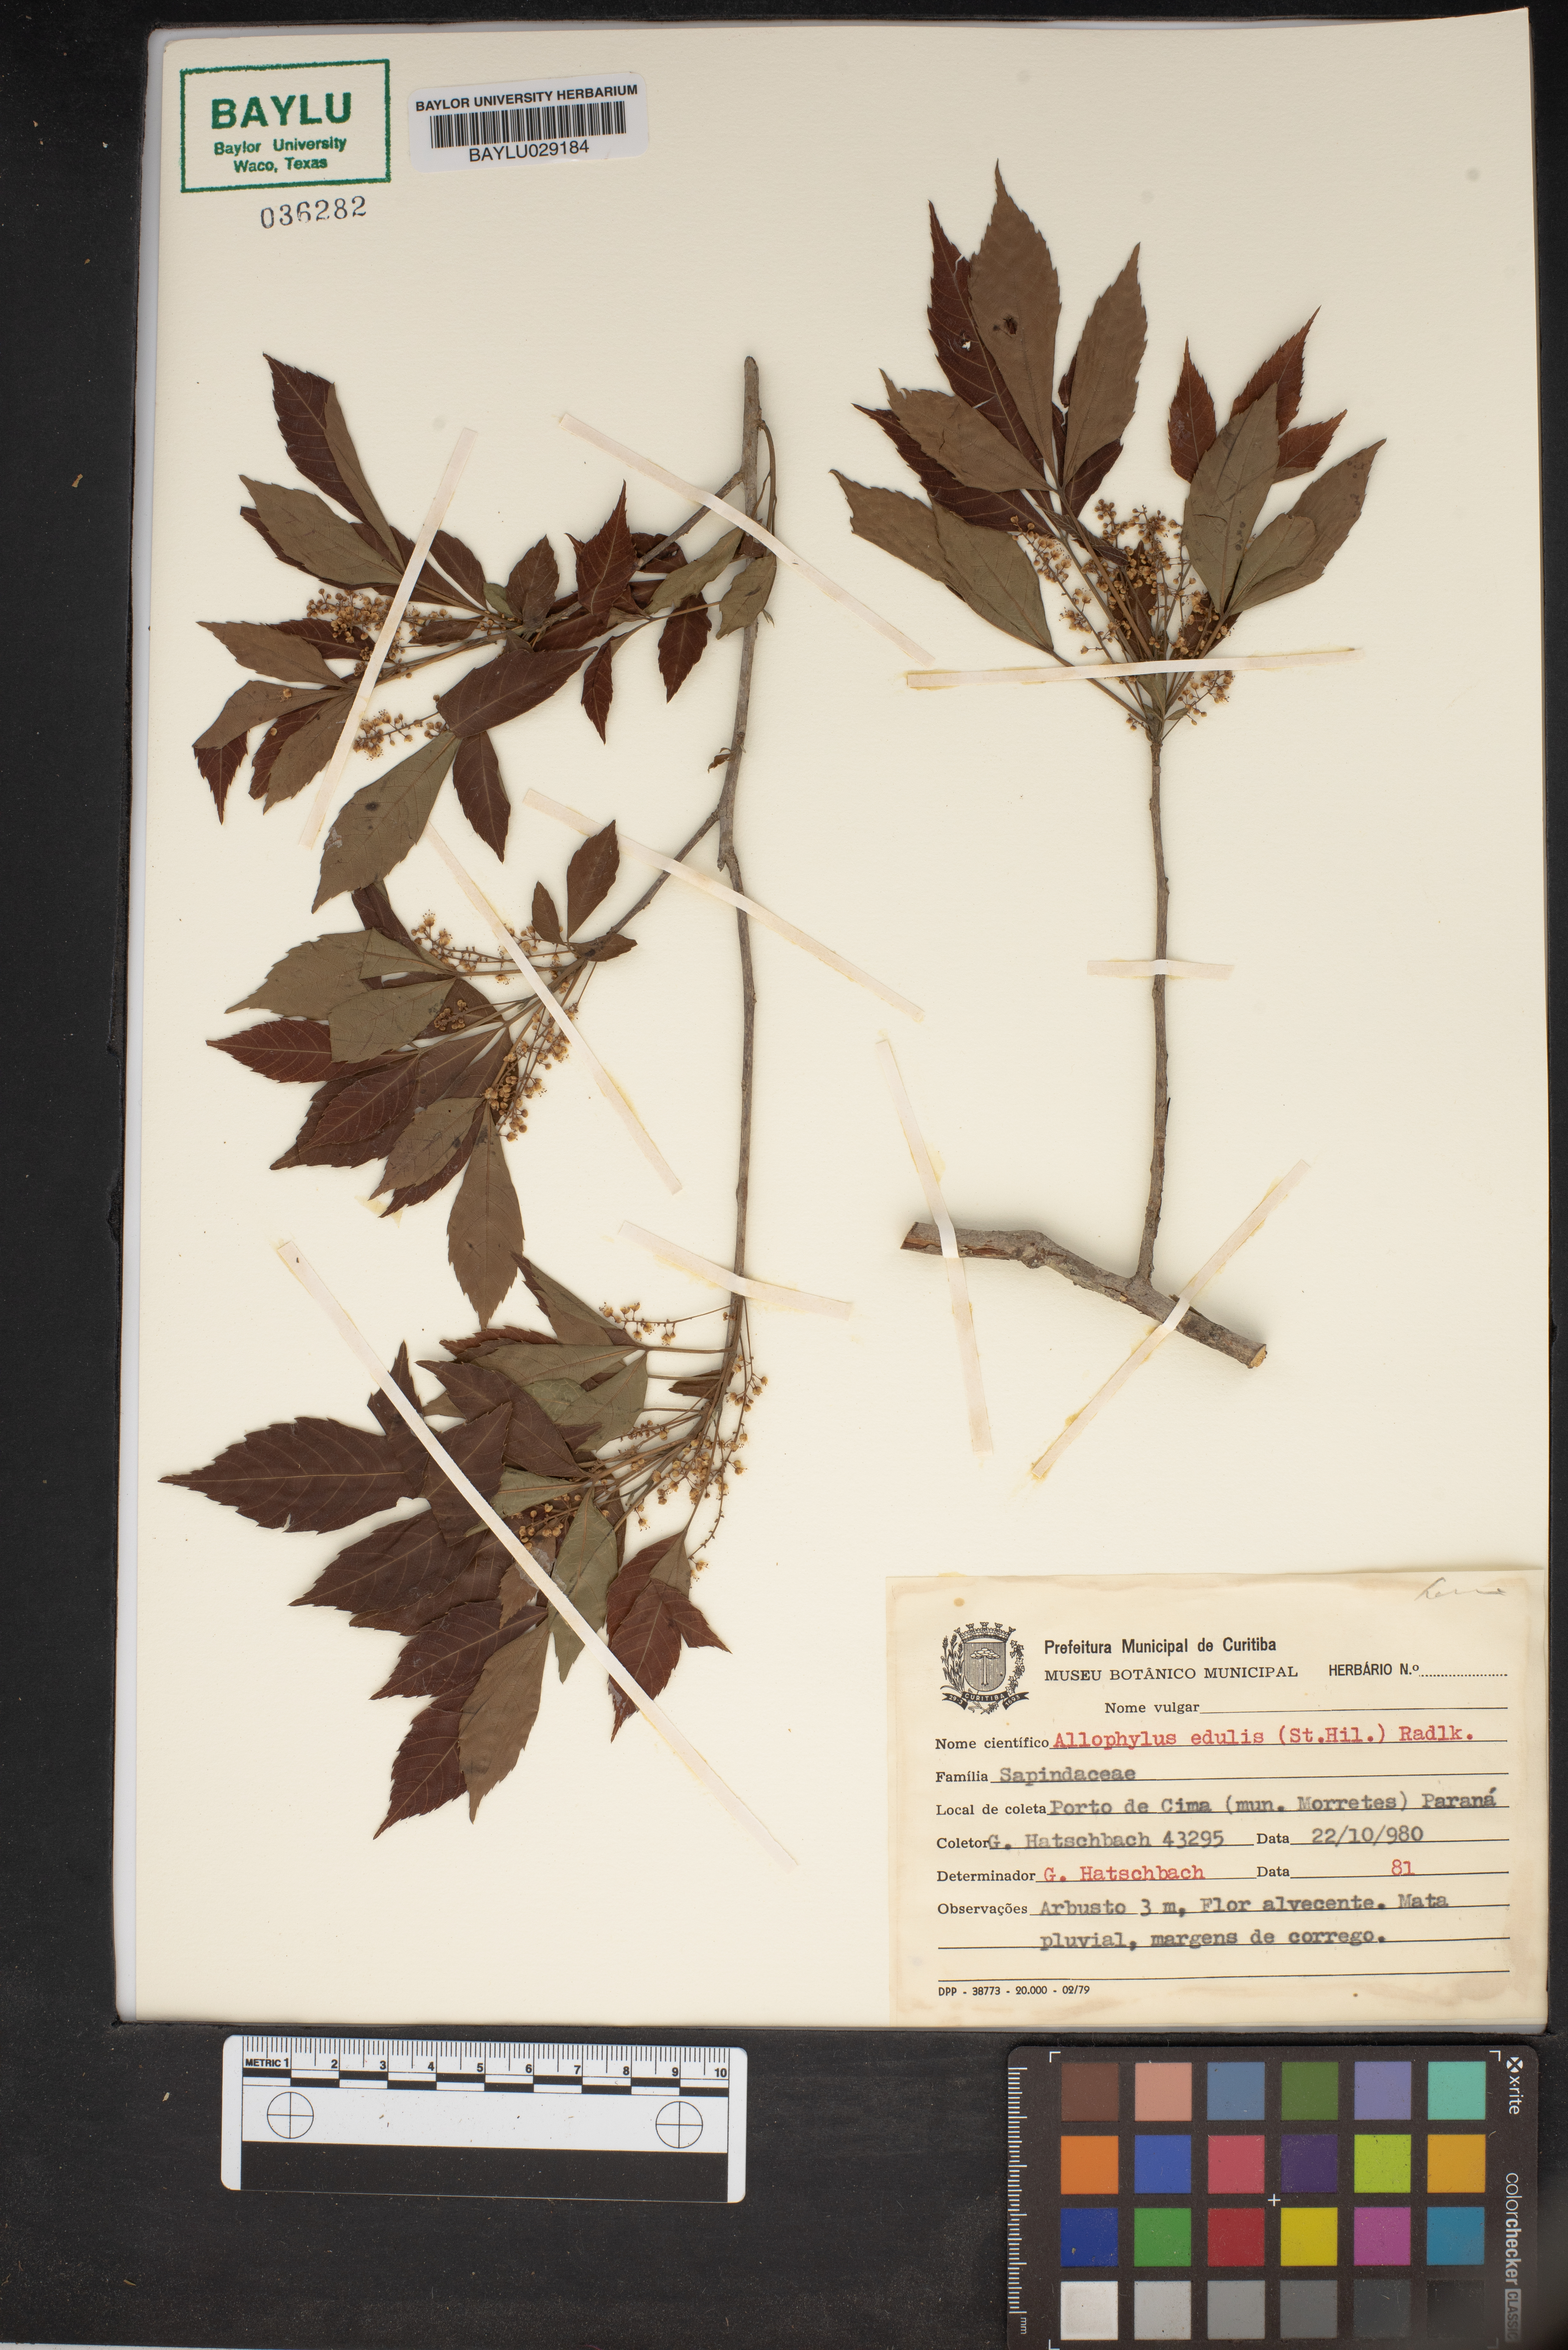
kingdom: Plantae
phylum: Tracheophyta
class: Magnoliopsida
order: Sapindales
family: Sapindaceae
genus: Allophylus
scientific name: Allophylus edulis
